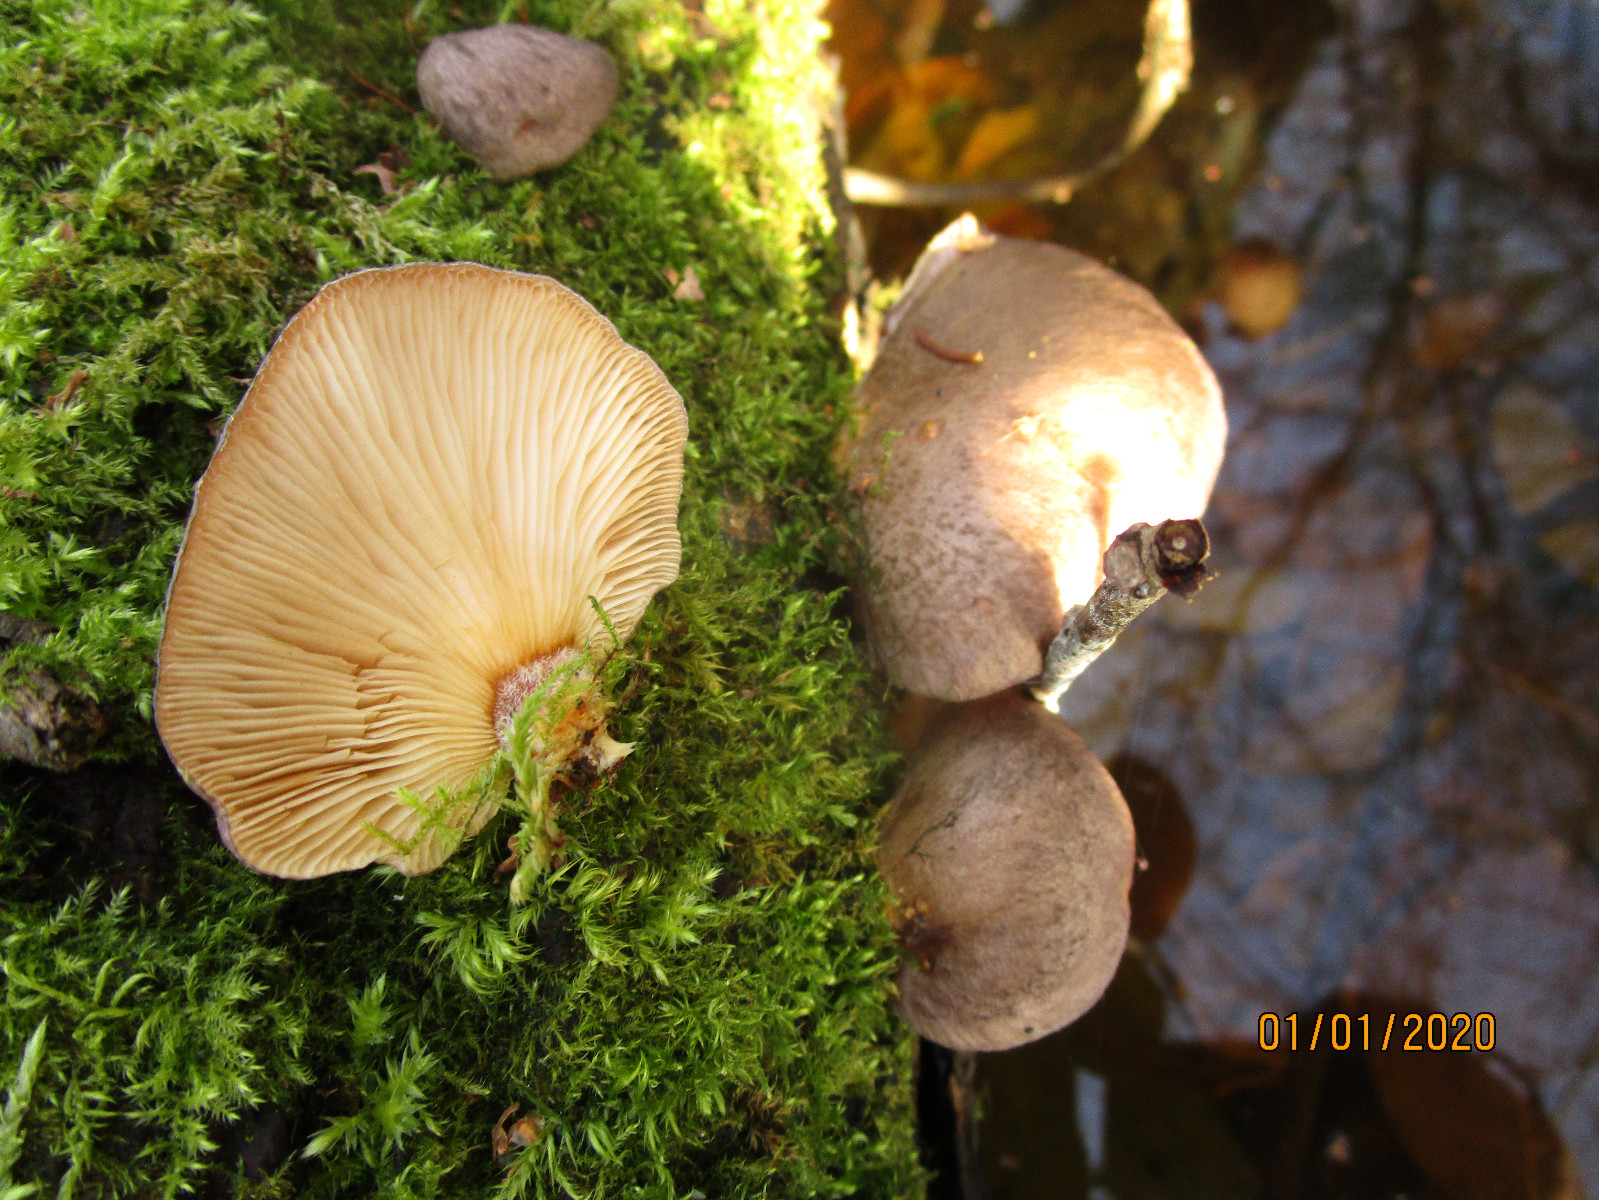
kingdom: Fungi
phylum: Basidiomycota
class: Agaricomycetes
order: Agaricales
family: Sarcomyxaceae
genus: Sarcomyxa
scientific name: Sarcomyxa serotina
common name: gummihat
